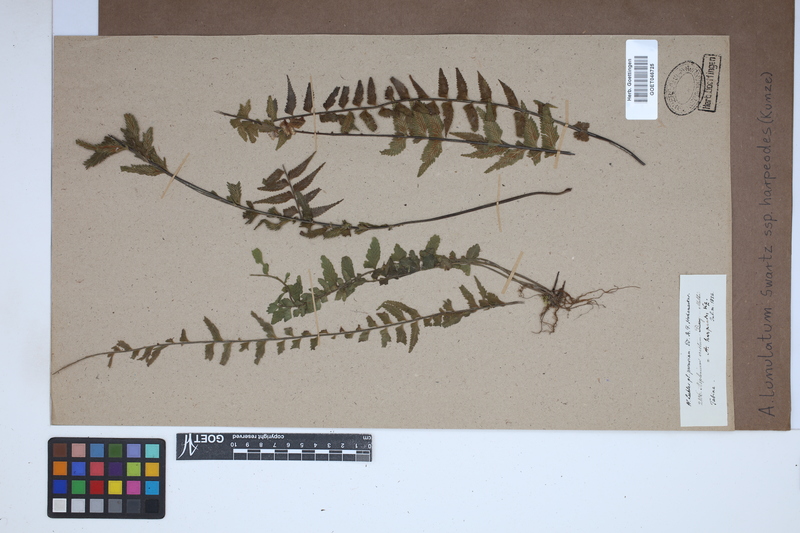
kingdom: Plantae
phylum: Tracheophyta
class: Polypodiopsida
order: Polypodiales
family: Aspleniaceae
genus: Asplenium
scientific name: Asplenium harpeodes
